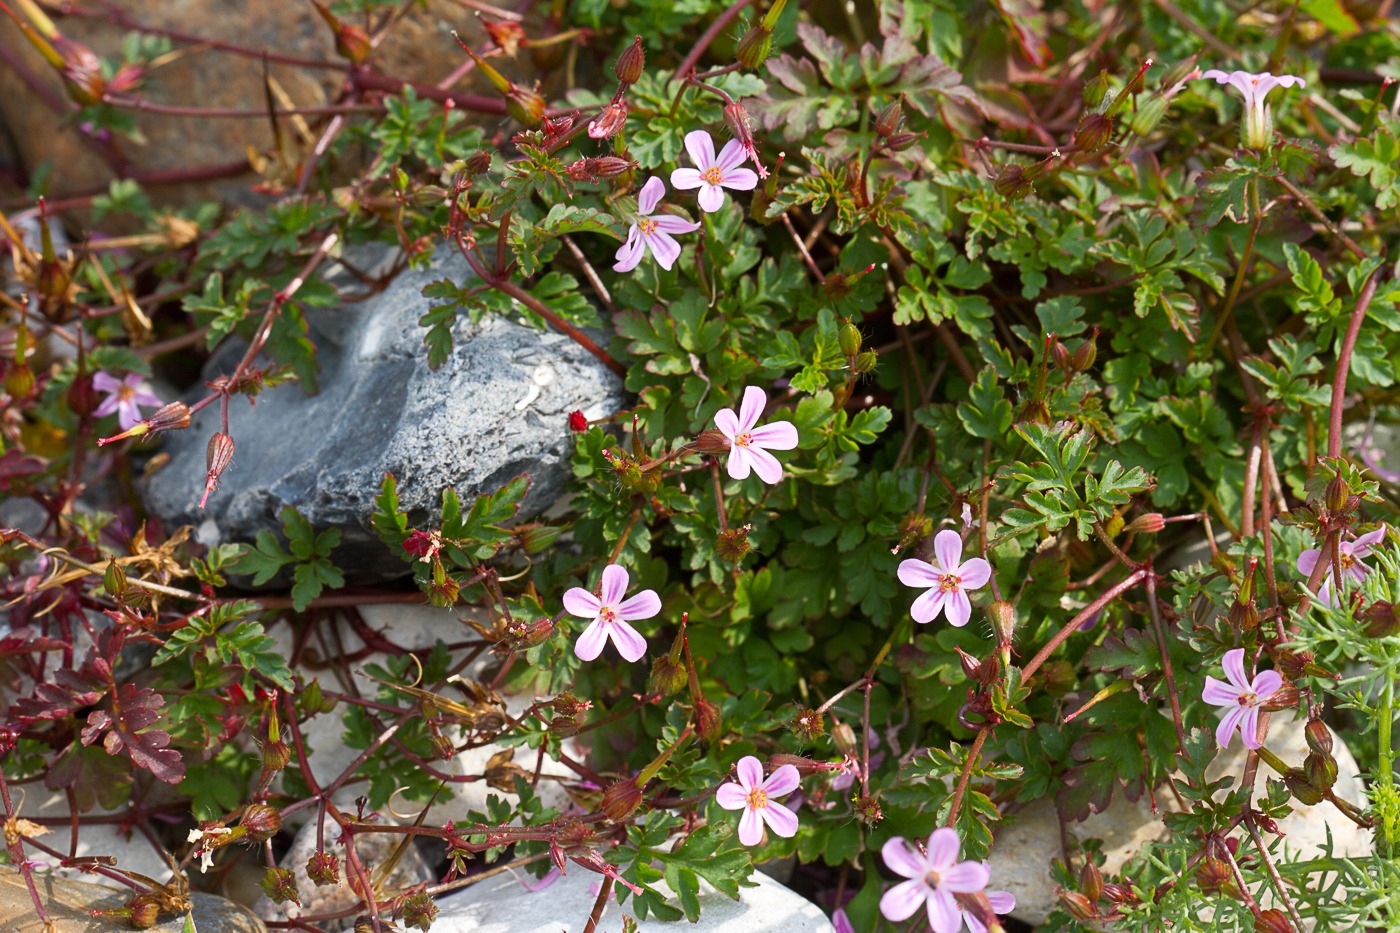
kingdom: Plantae
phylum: Tracheophyta
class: Magnoliopsida
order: Geraniales
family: Geraniaceae
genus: Geranium
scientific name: Geranium robertianum
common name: Stinkende storkenæb
